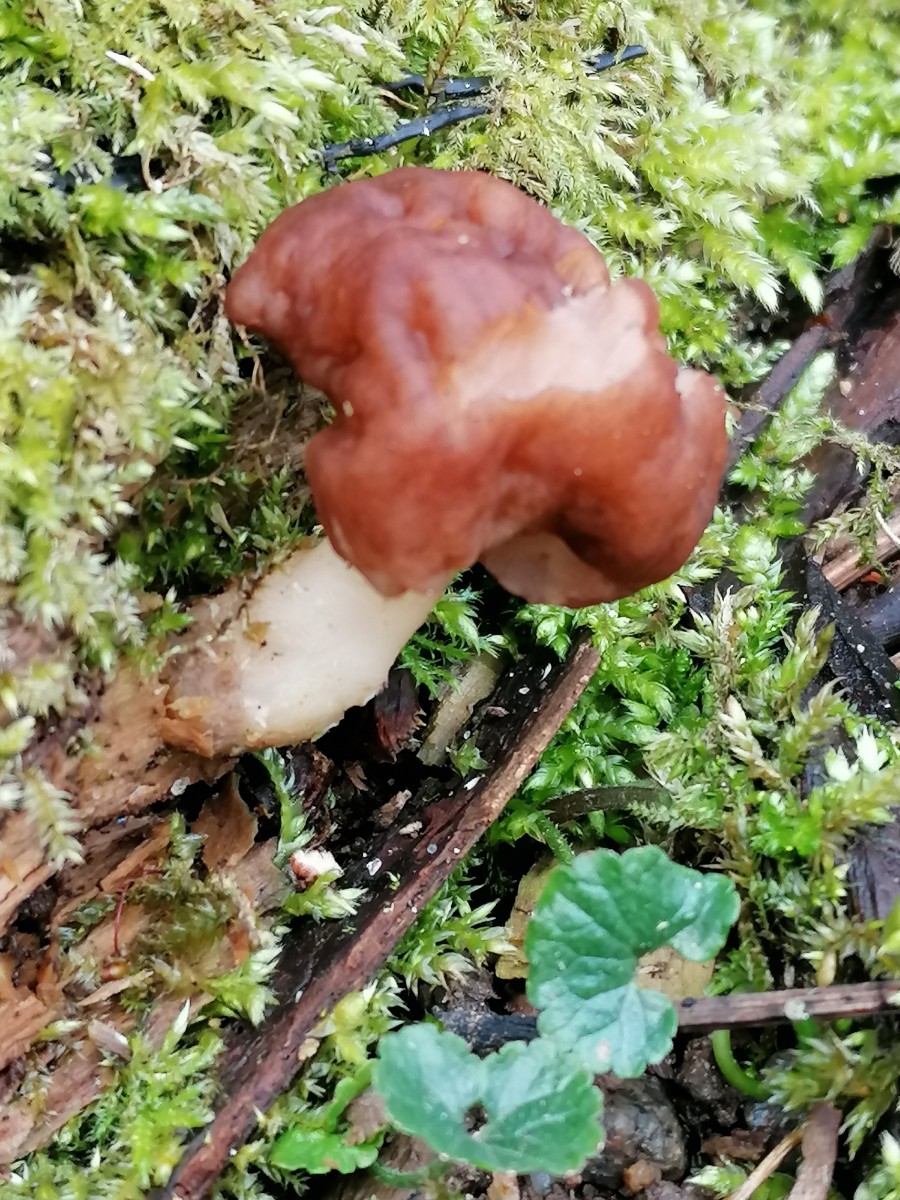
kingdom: Fungi
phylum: Ascomycota
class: Pezizomycetes
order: Pezizales
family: Discinaceae
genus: Gyromitra
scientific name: Gyromitra esculenta
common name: ægte stenmorkel
